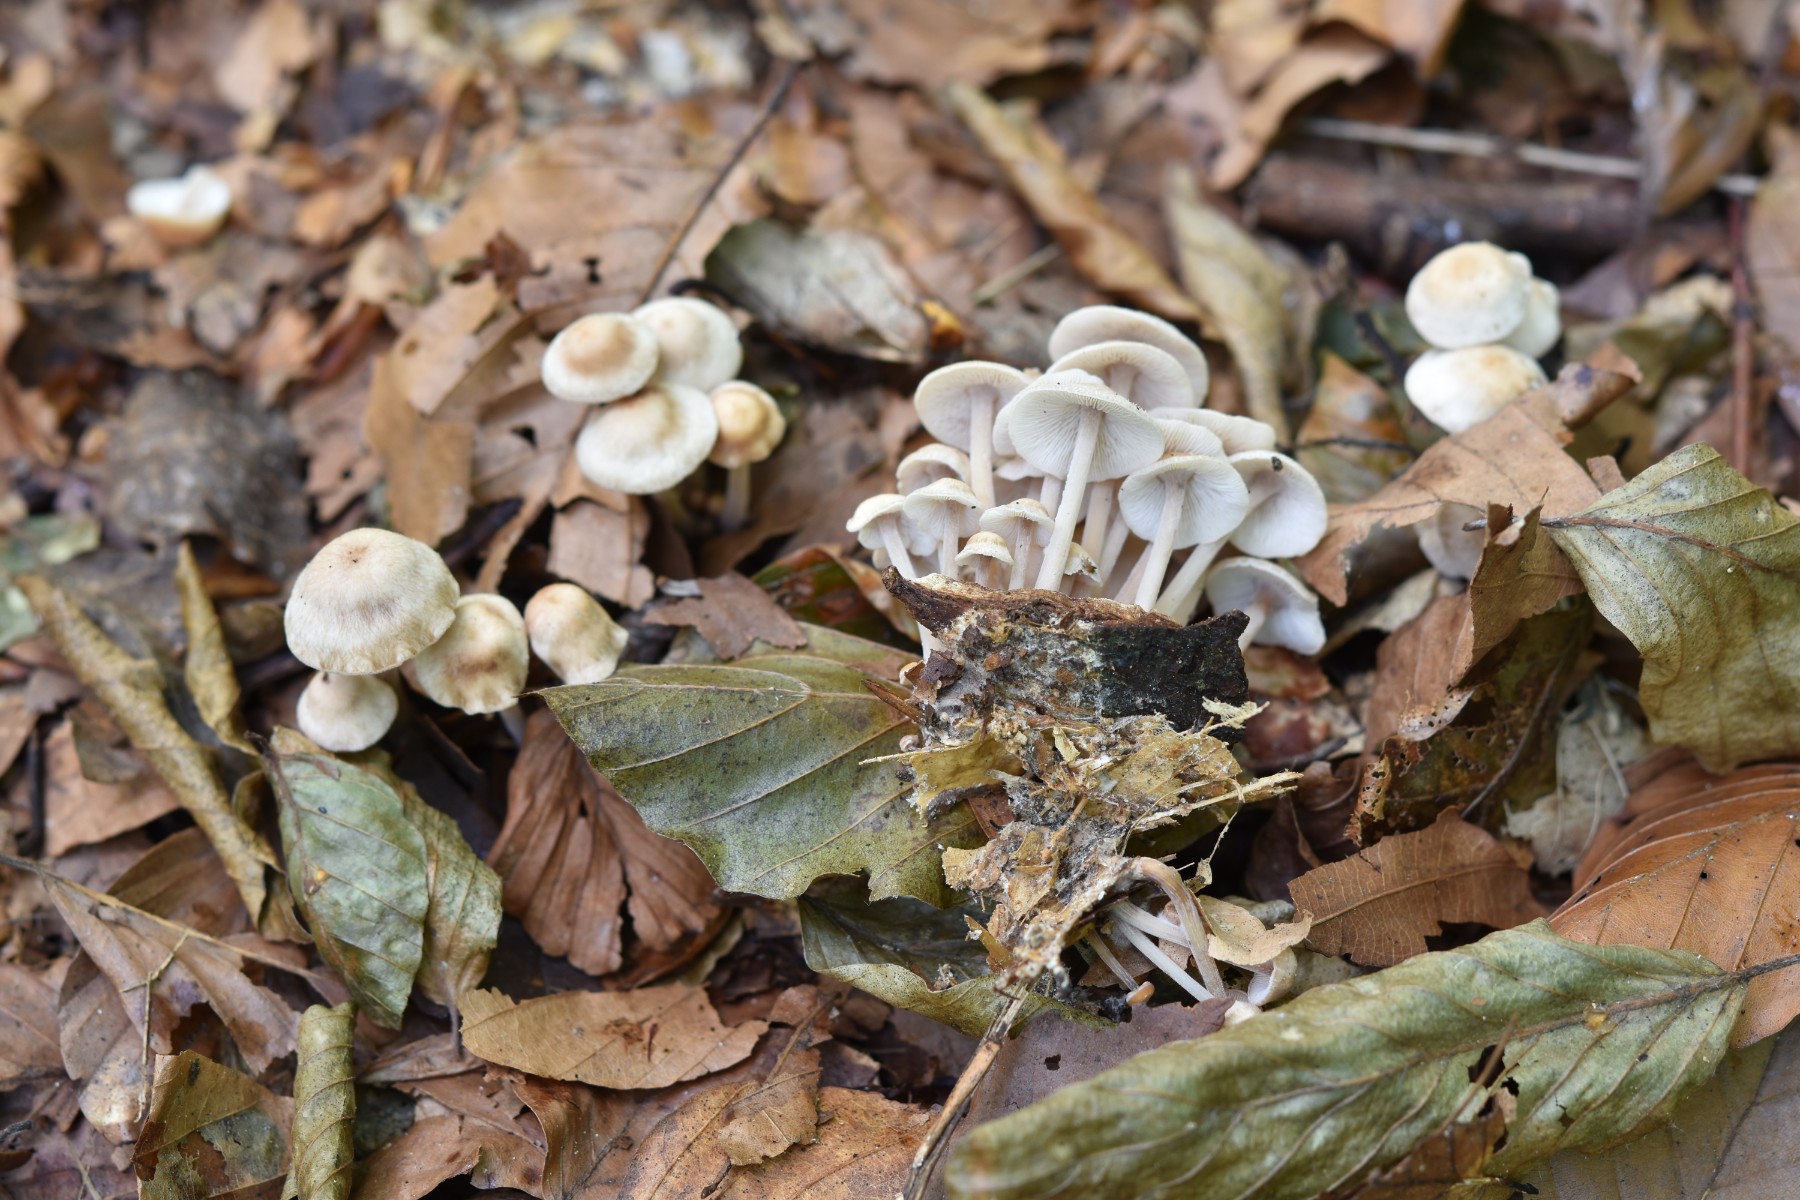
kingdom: Fungi
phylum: Basidiomycota
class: Agaricomycetes
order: Agaricales
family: Omphalotaceae
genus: Collybiopsis
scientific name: Collybiopsis confluens
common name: knippe-fladhat
